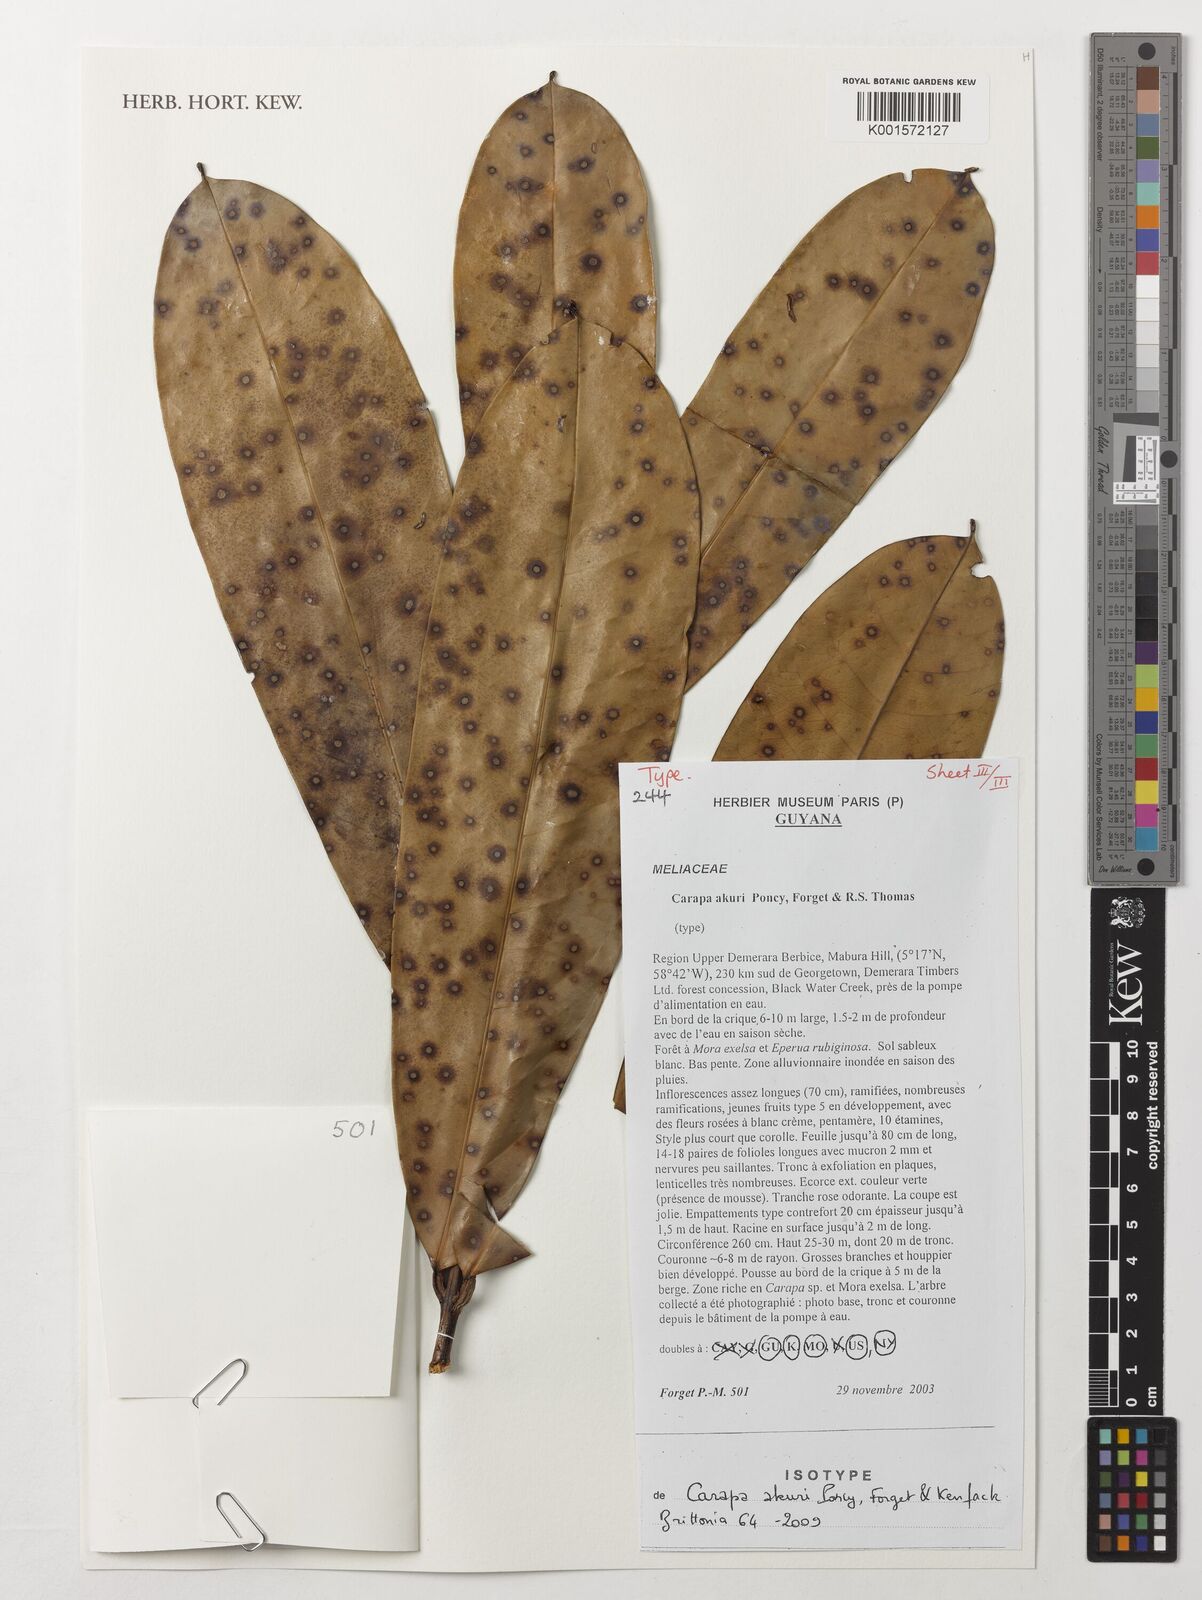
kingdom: Plantae
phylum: Tracheophyta
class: Magnoliopsida
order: Sapindales
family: Meliaceae
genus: Carapa
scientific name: Carapa akuri
